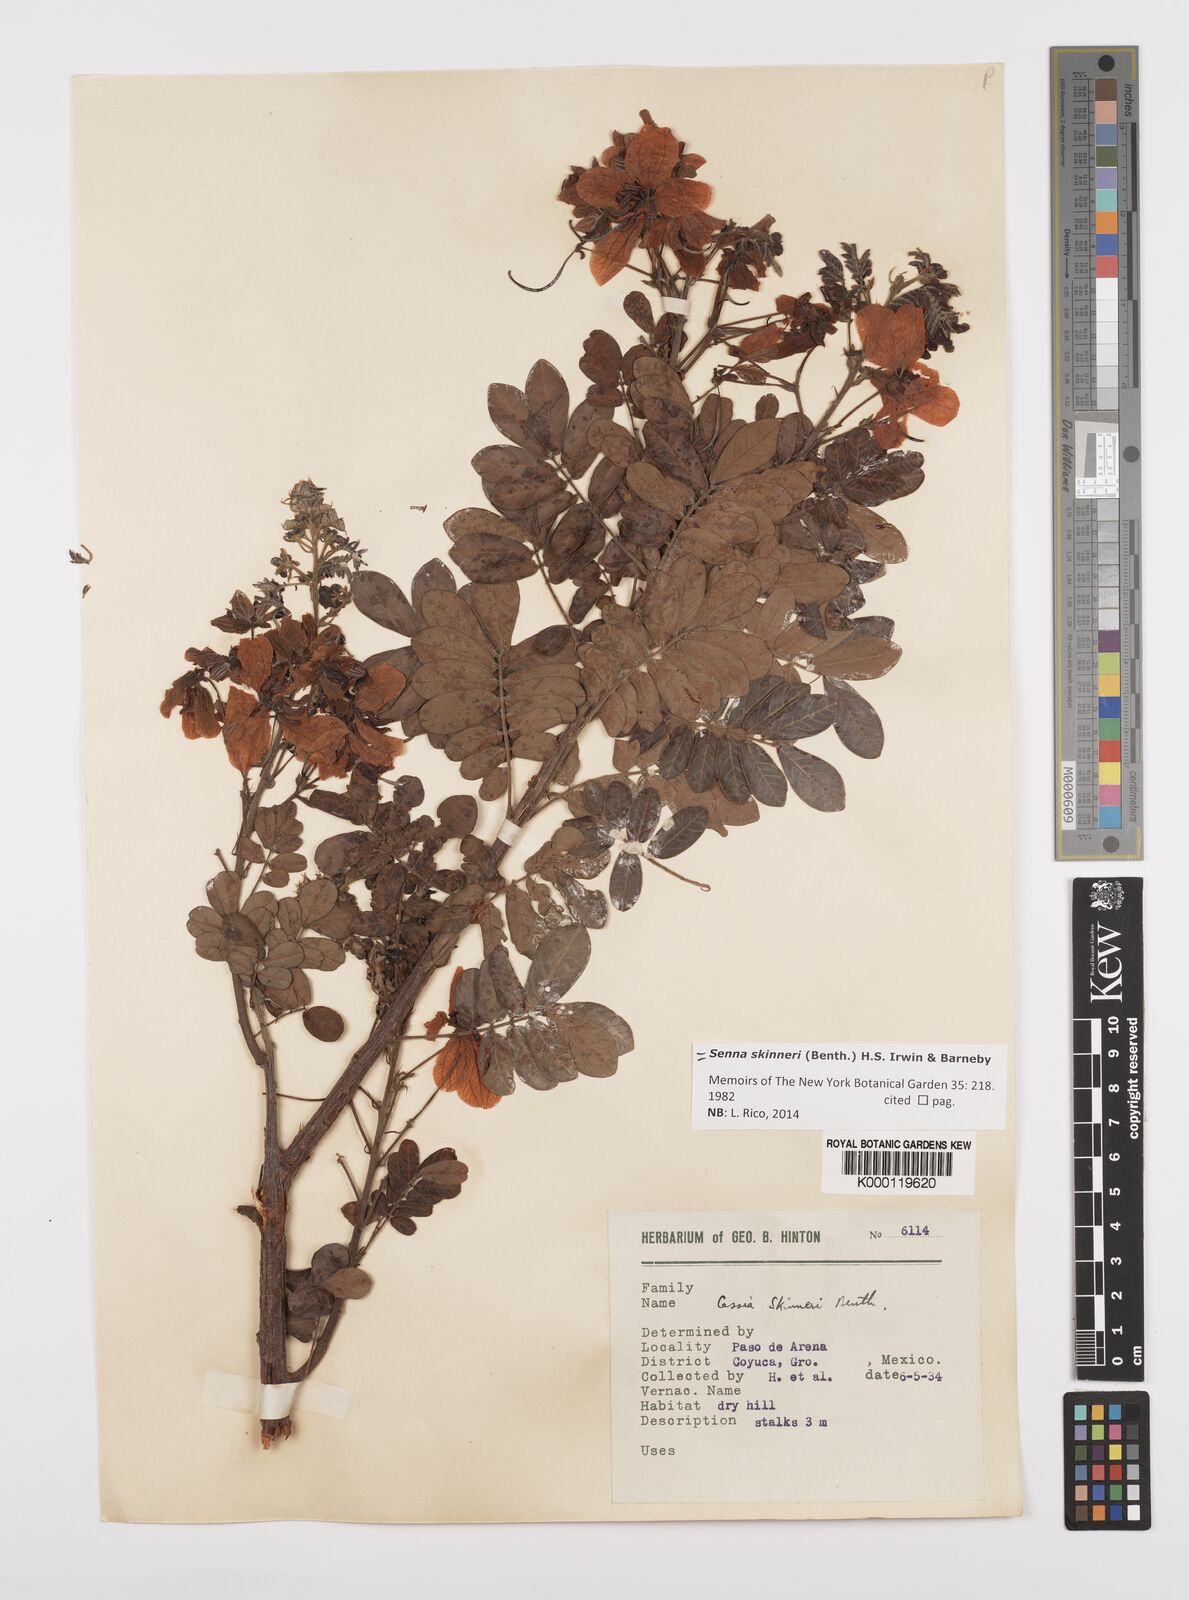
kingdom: Plantae
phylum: Tracheophyta
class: Magnoliopsida
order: Fabales
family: Fabaceae
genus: Senna
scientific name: Senna skinneri
